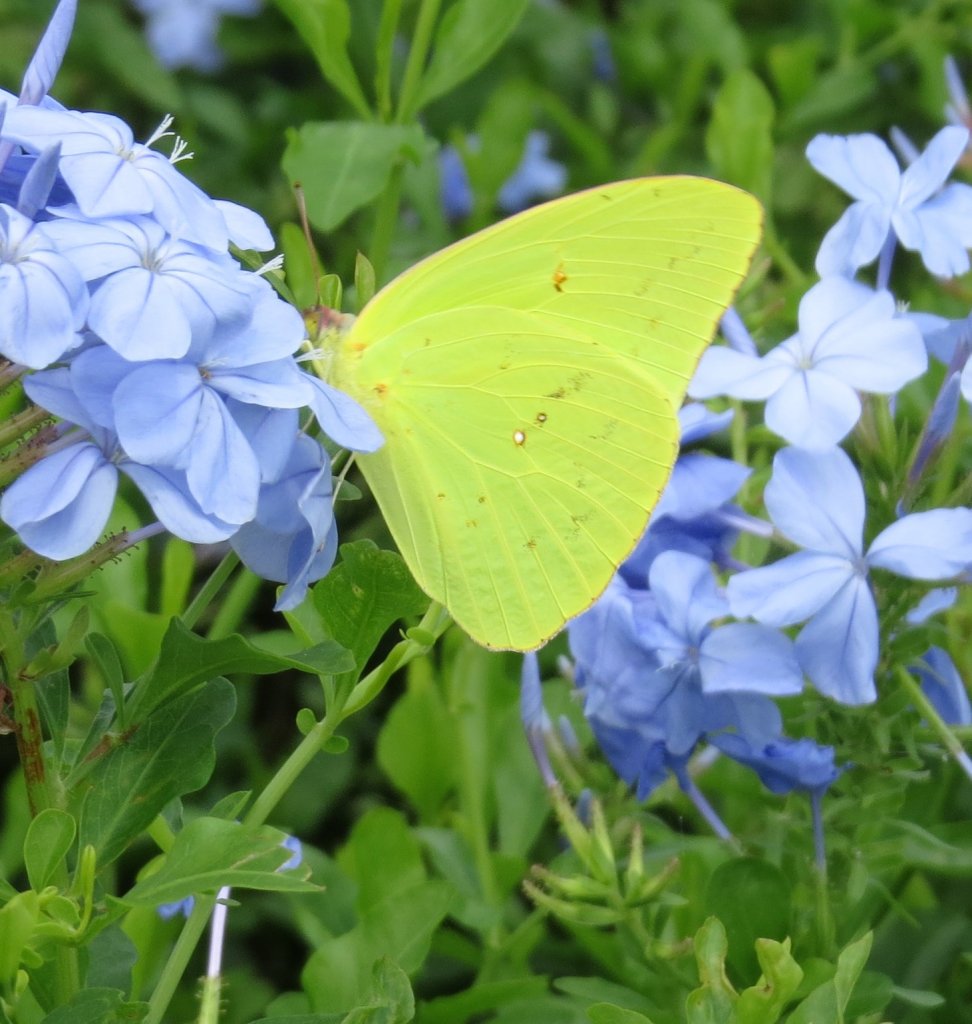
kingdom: Animalia
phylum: Arthropoda
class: Insecta
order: Lepidoptera
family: Pieridae
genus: Phoebis
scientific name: Phoebis sennae
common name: Cloudless Sulphur
